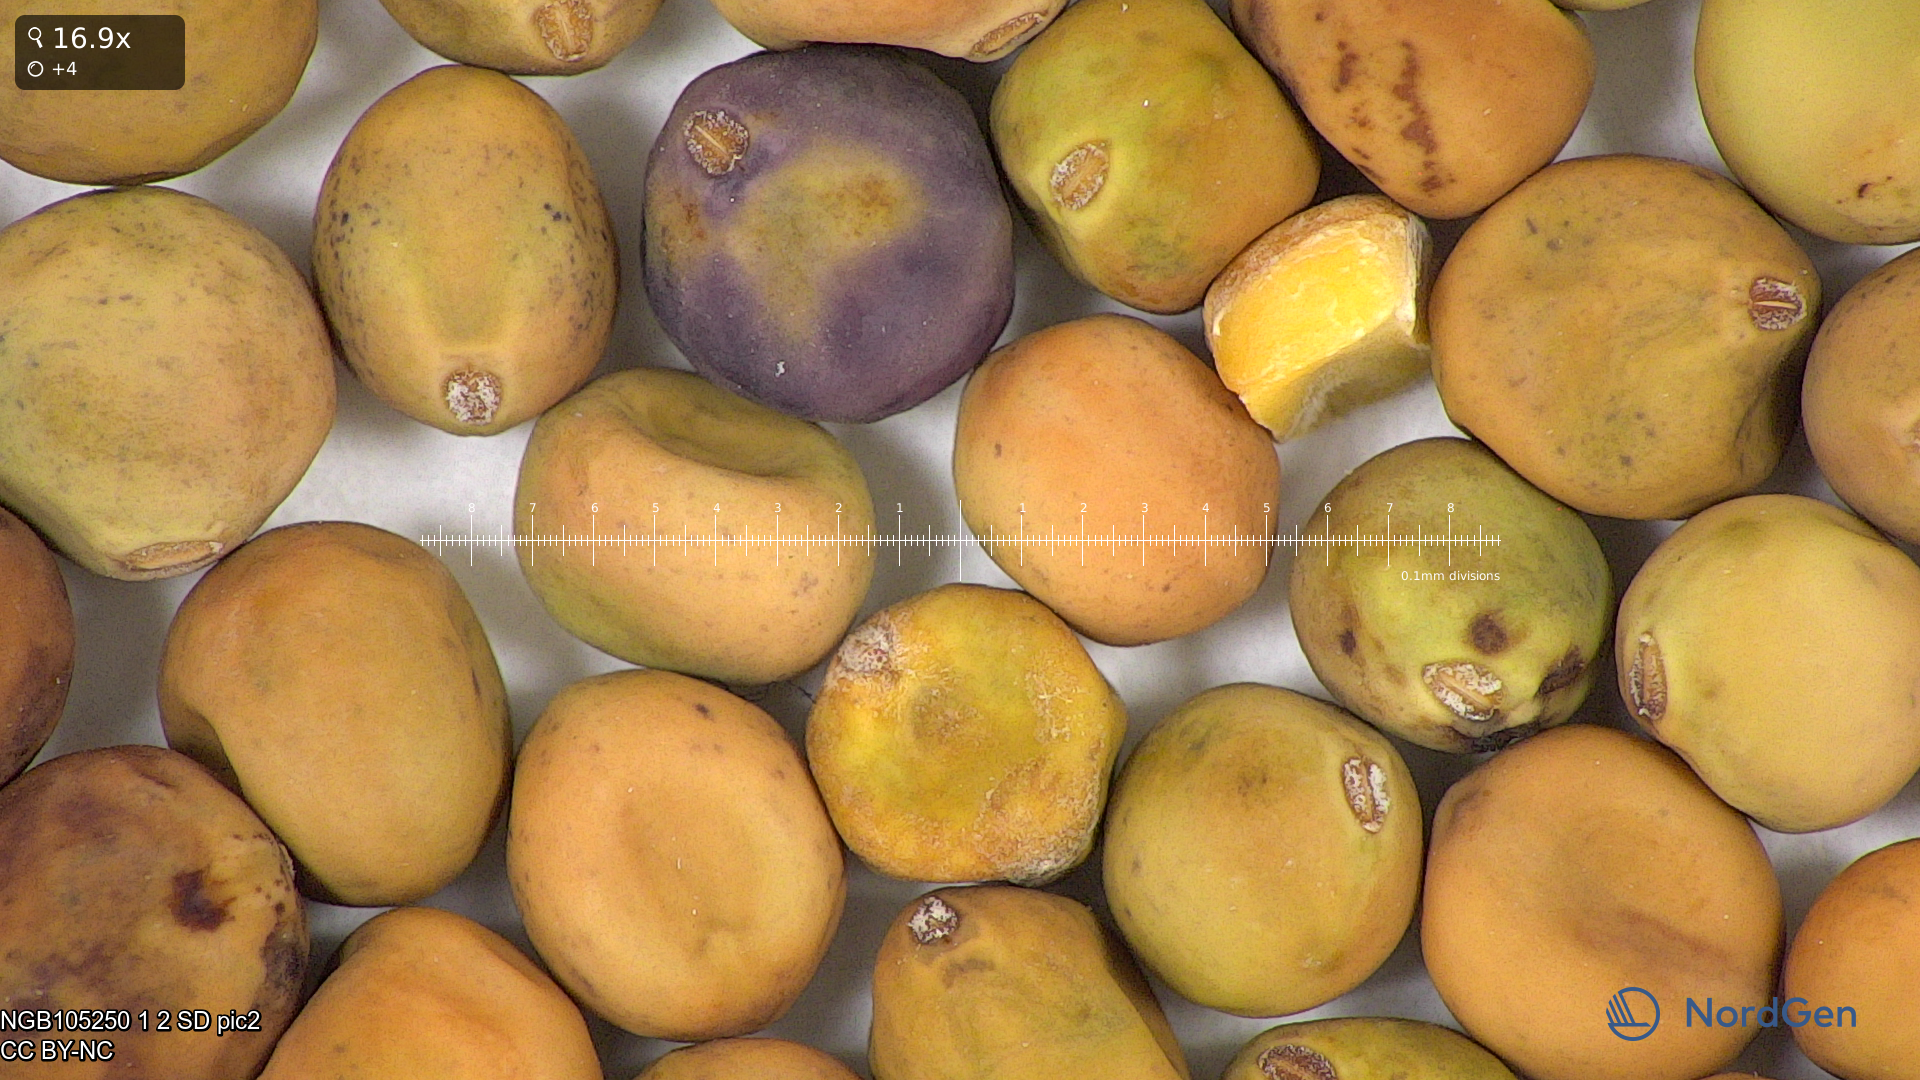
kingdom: Plantae
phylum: Tracheophyta
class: Magnoliopsida
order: Fabales
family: Fabaceae
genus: Lathyrus
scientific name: Lathyrus oleraceus
